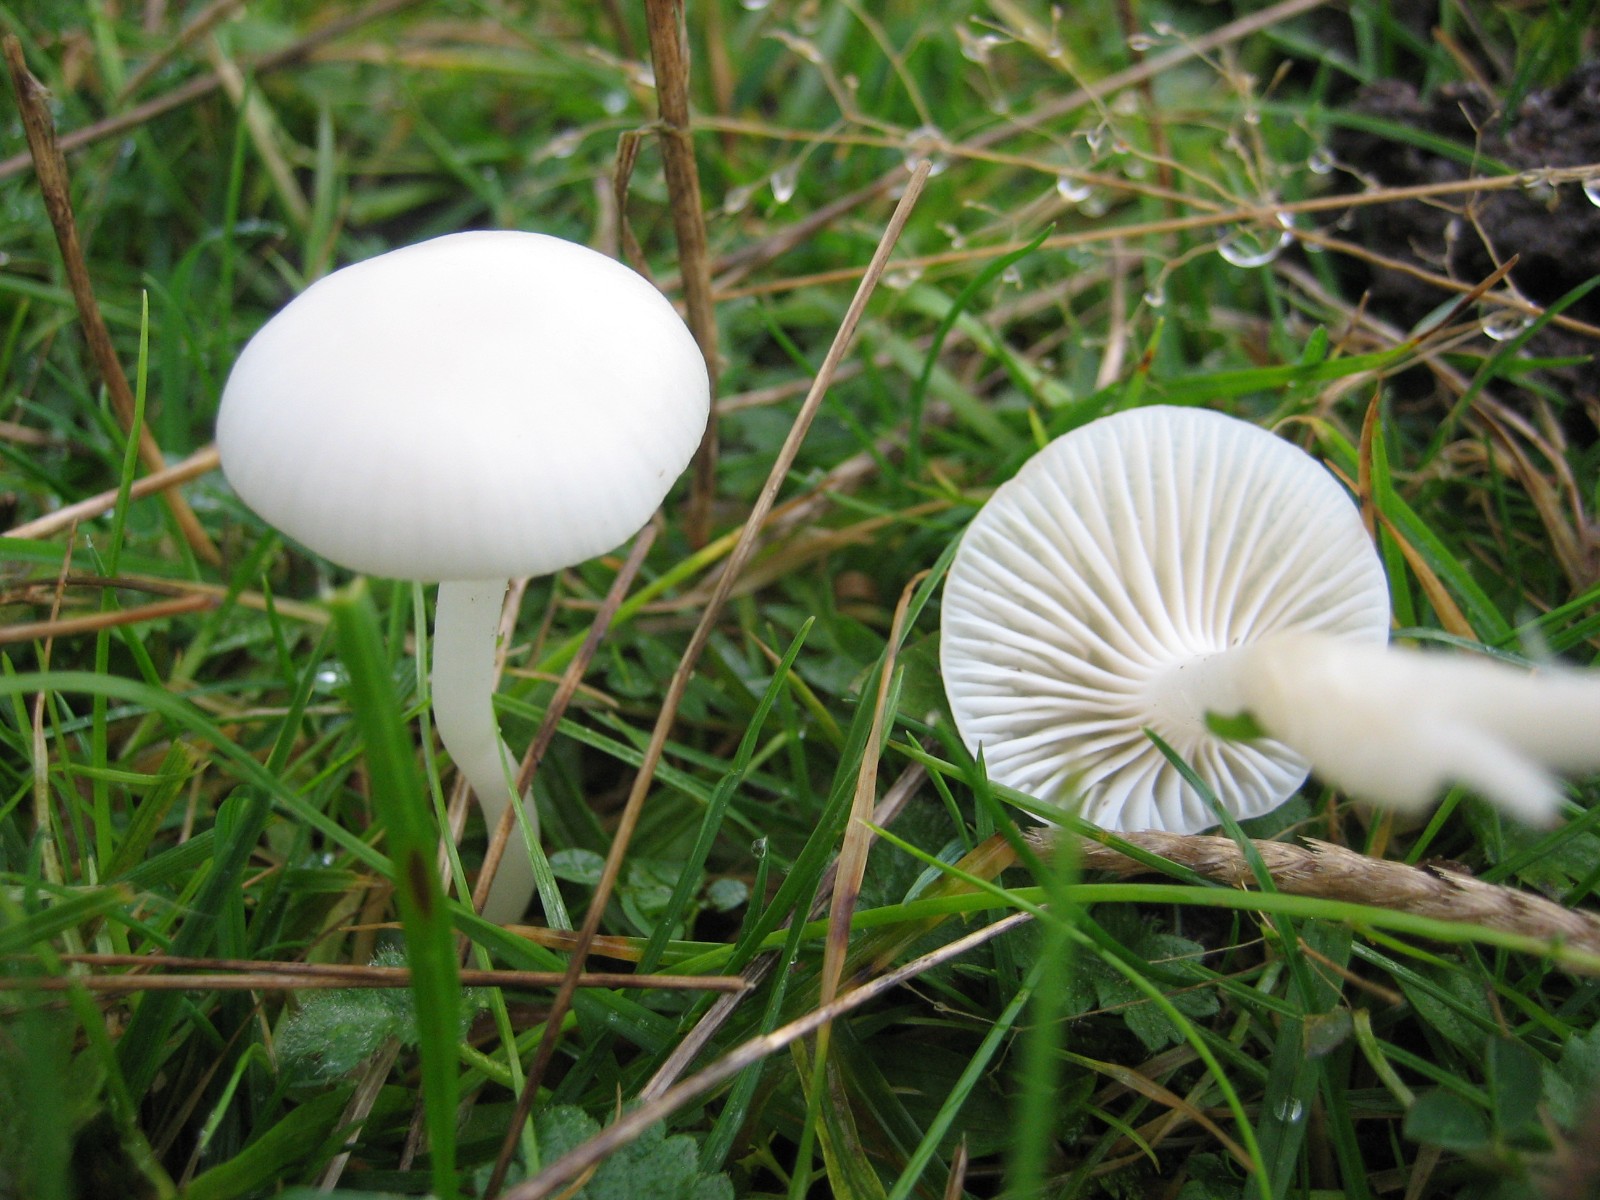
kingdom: Fungi
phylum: Basidiomycota
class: Agaricomycetes
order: Agaricales
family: Hygrophoraceae
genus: Cuphophyllus
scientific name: Cuphophyllus virgineus
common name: snehvid vokshat
